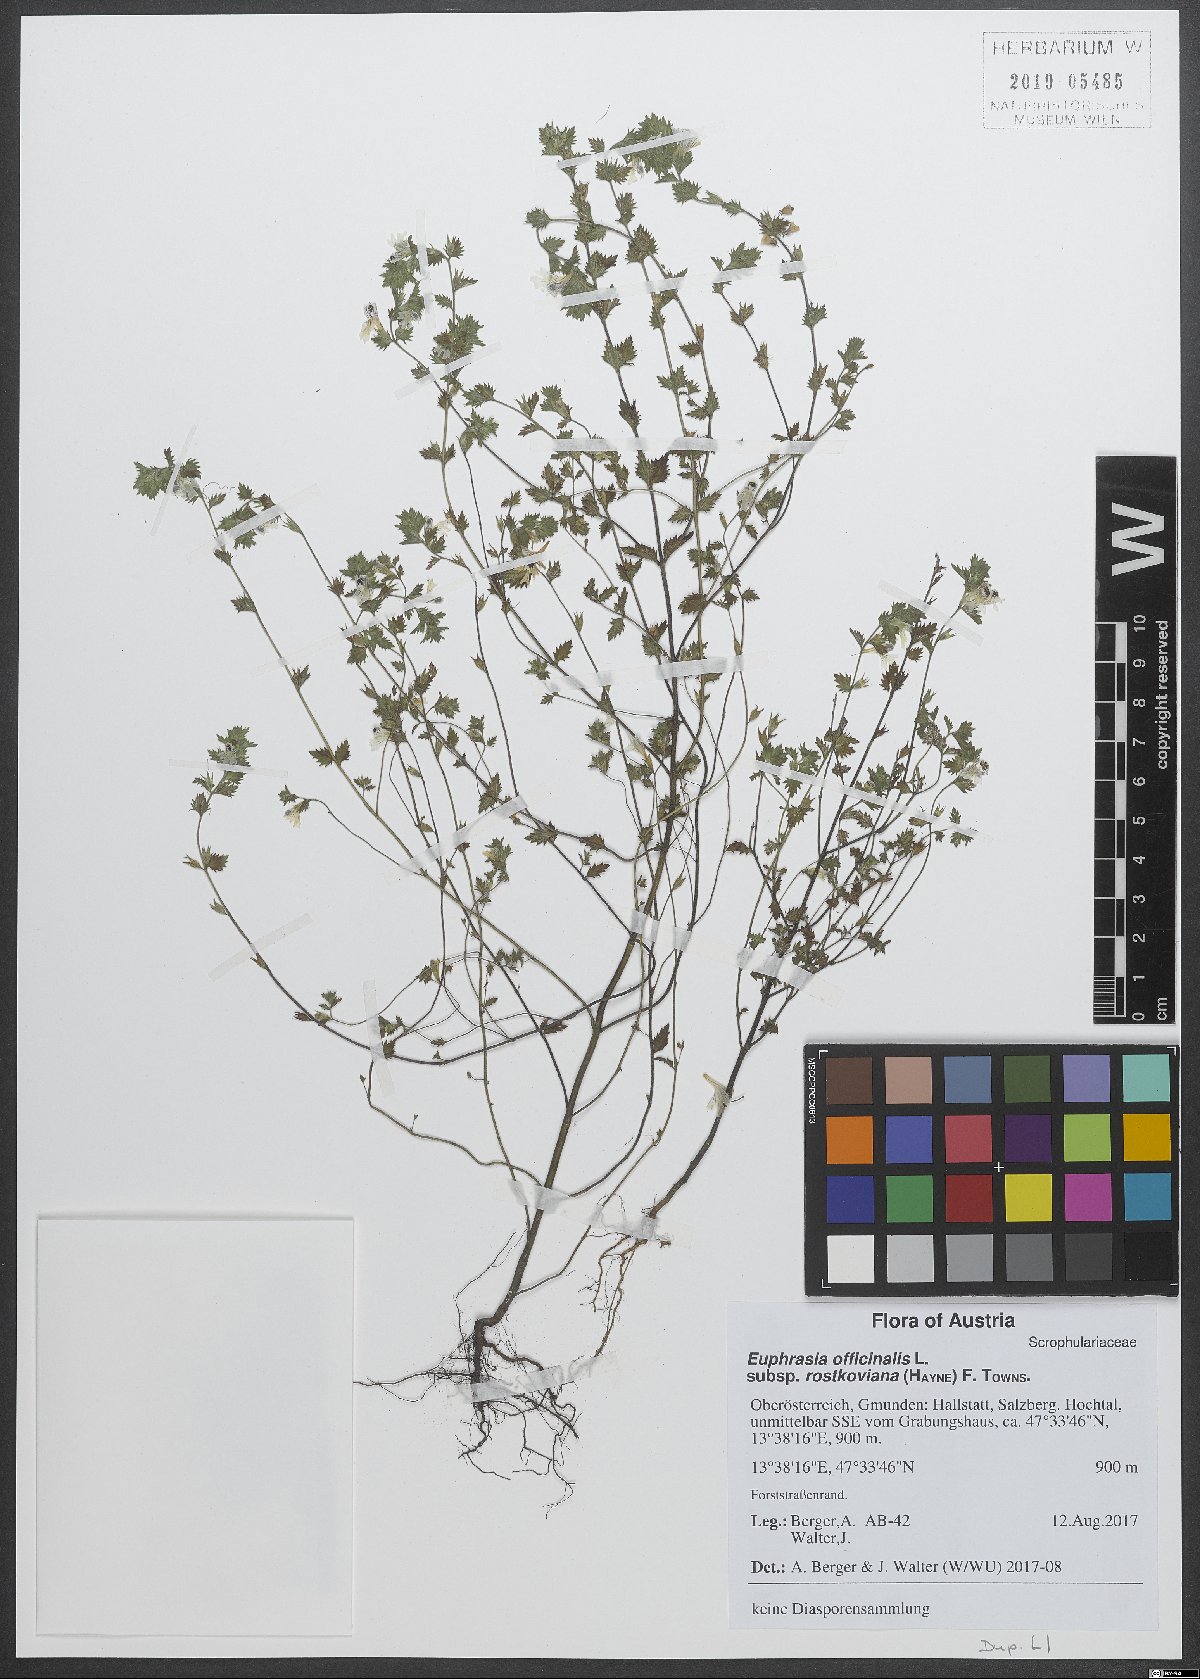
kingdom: Plantae
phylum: Tracheophyta
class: Magnoliopsida
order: Lamiales
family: Orobanchaceae
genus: Euphrasia
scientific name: Euphrasia officinalis
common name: Eyebright
